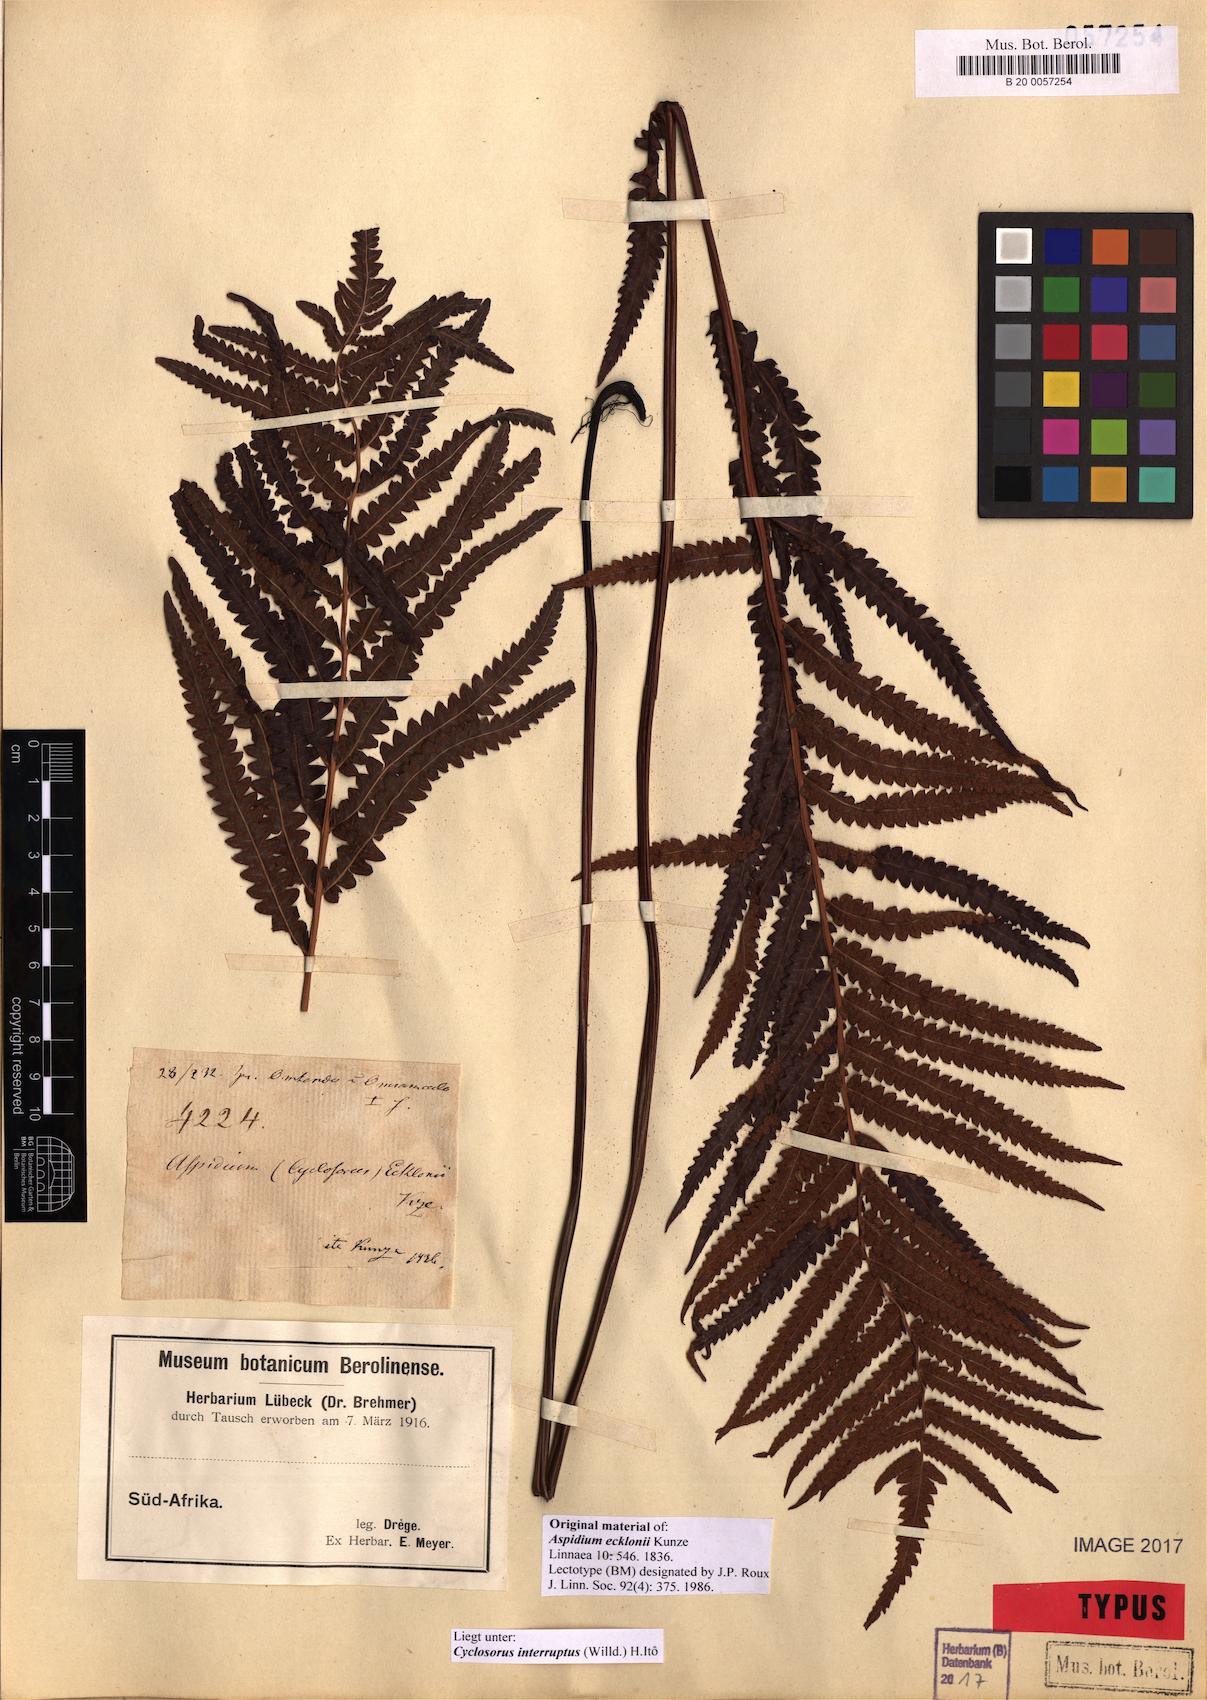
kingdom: Plantae
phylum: Tracheophyta
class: Polypodiopsida
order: Polypodiales
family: Thelypteridaceae
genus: Cyclosorus
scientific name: Cyclosorus interruptus
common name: Neke fern
